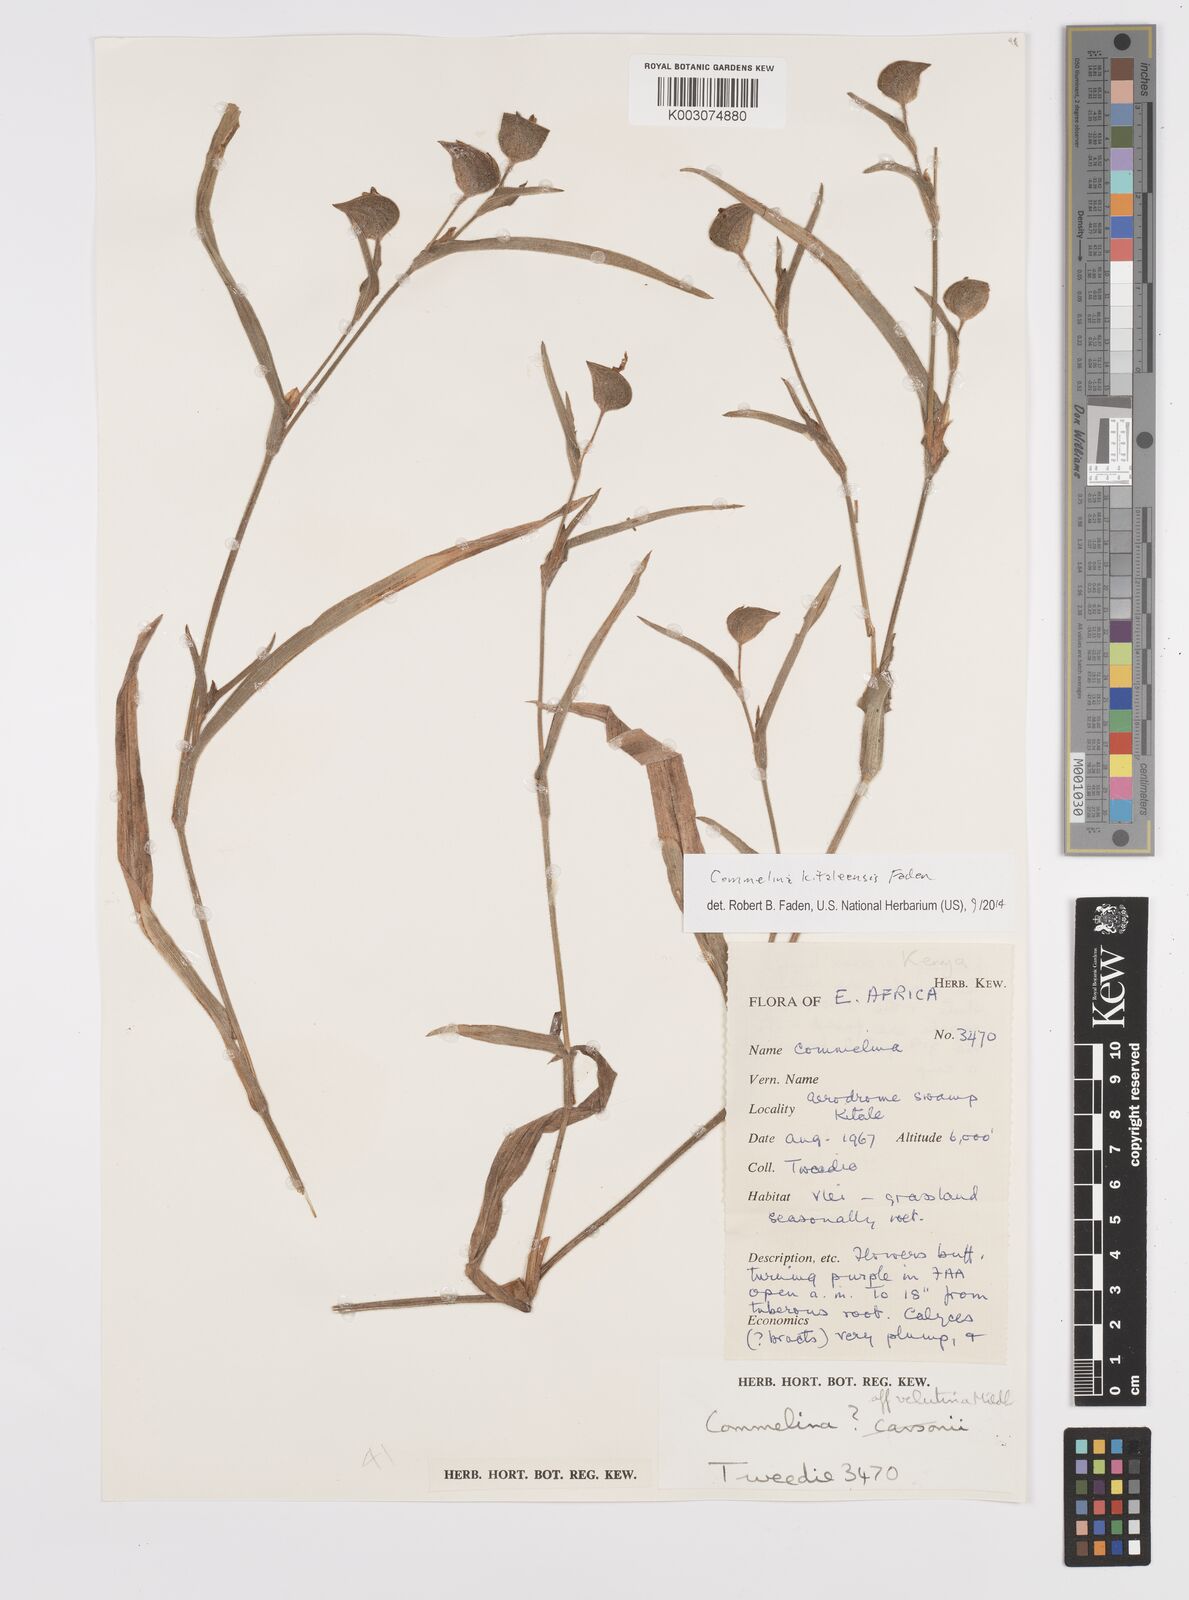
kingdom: Plantae
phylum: Tracheophyta
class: Liliopsida
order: Commelinales
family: Commelinaceae
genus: Commelina
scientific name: Commelina kitaleensis
